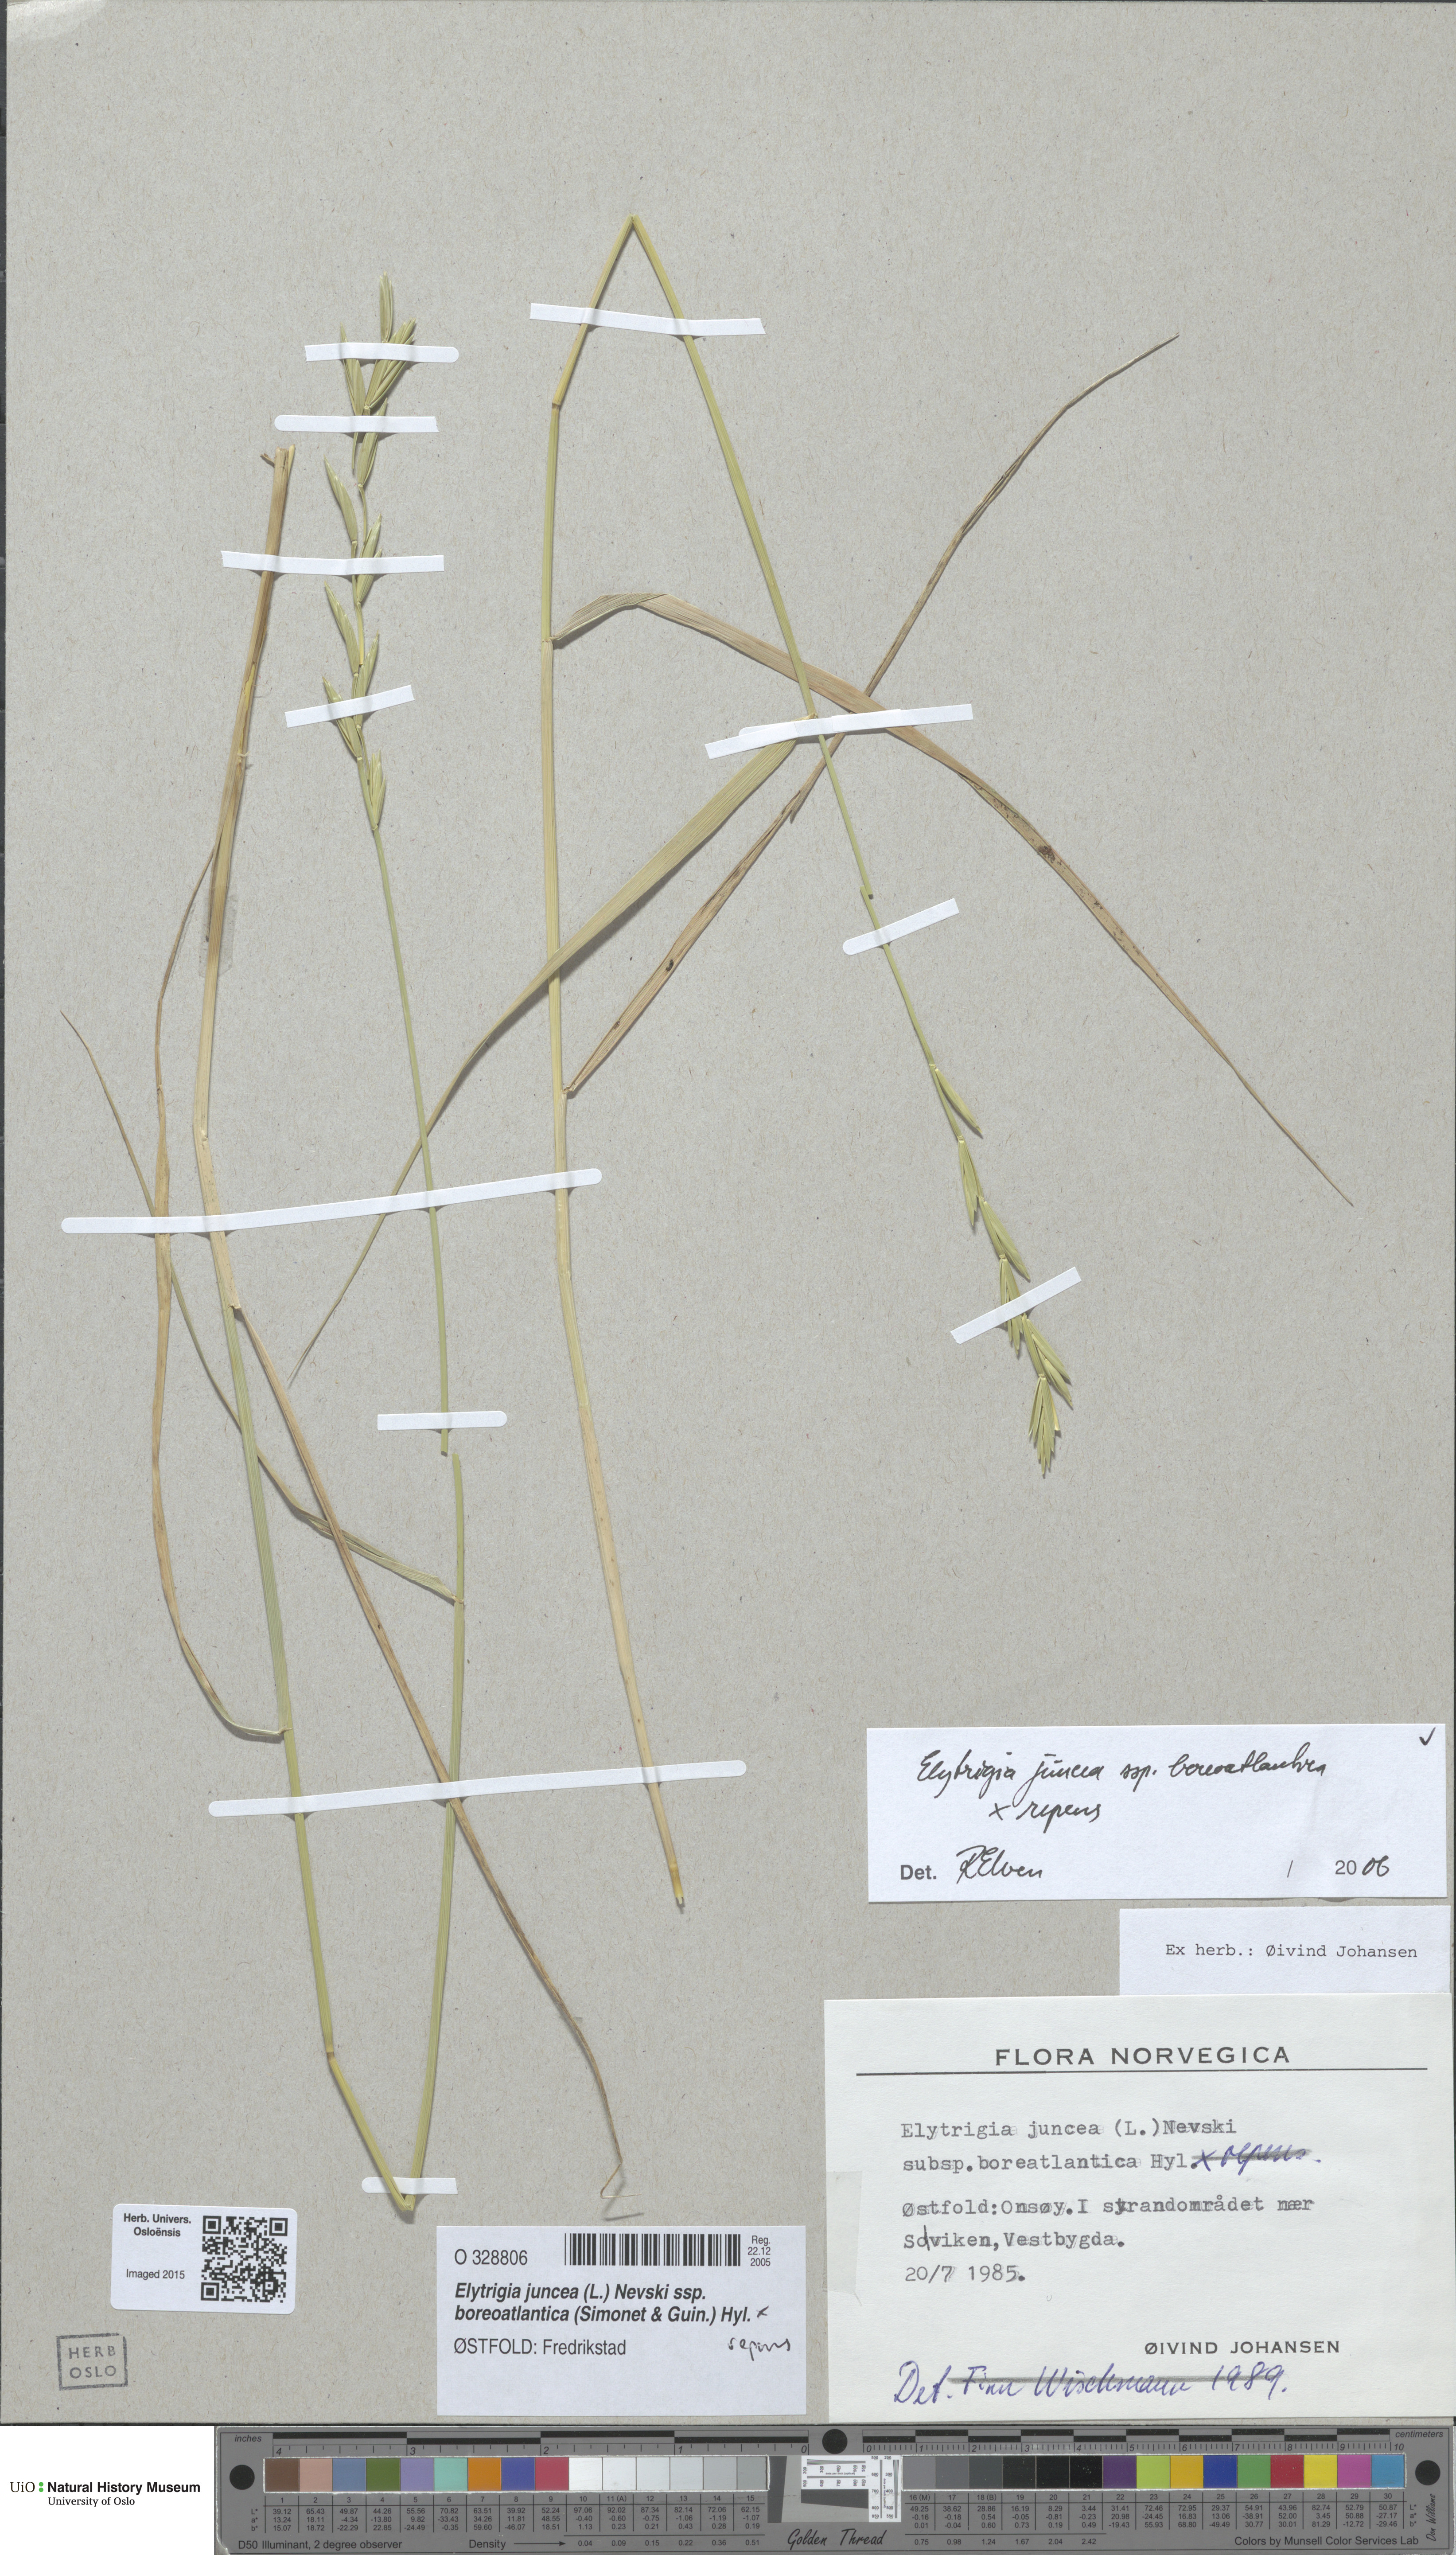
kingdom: Plantae
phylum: Tracheophyta
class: Liliopsida
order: Poales
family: Poaceae
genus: Elymus
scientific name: Elymus
